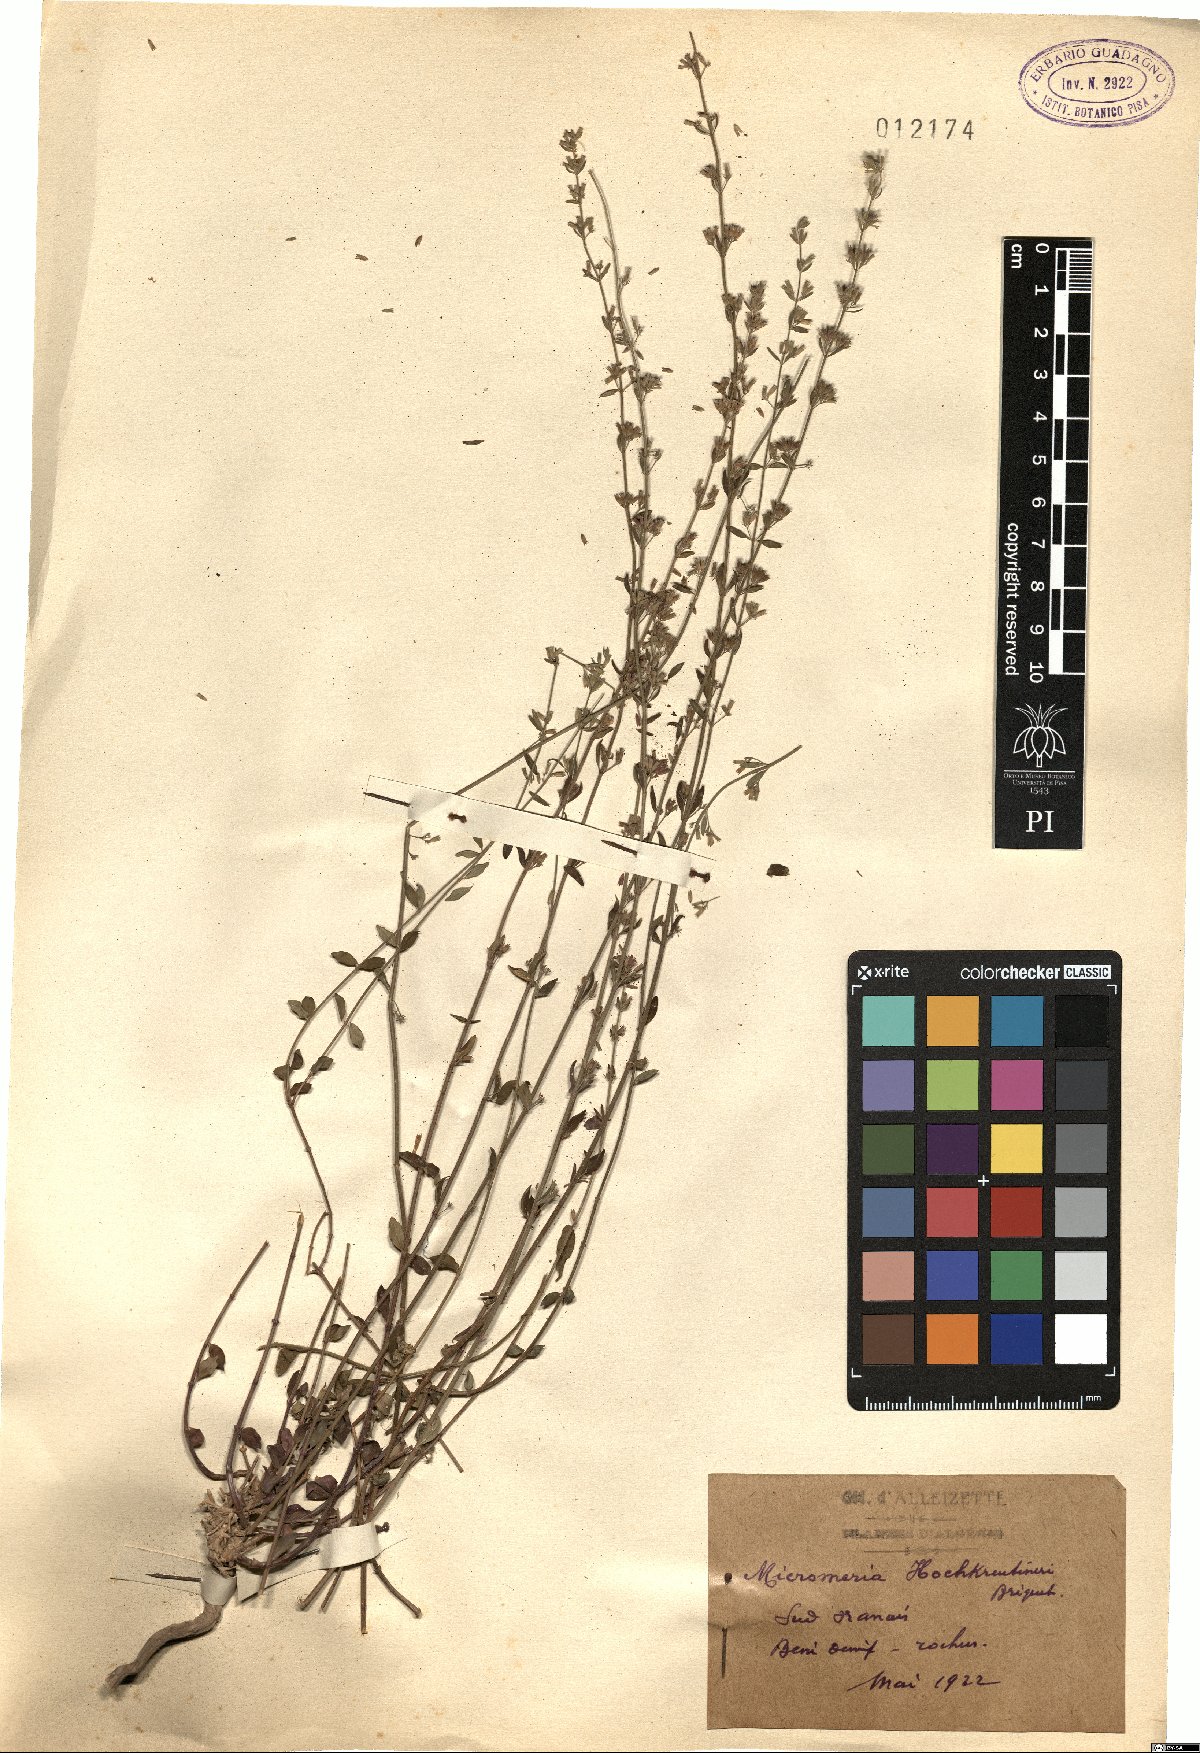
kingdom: Plantae
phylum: Tracheophyta
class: Magnoliopsida
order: Lamiales
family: Lamiaceae
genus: Micromeria
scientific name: Micromeria hochreutineri
